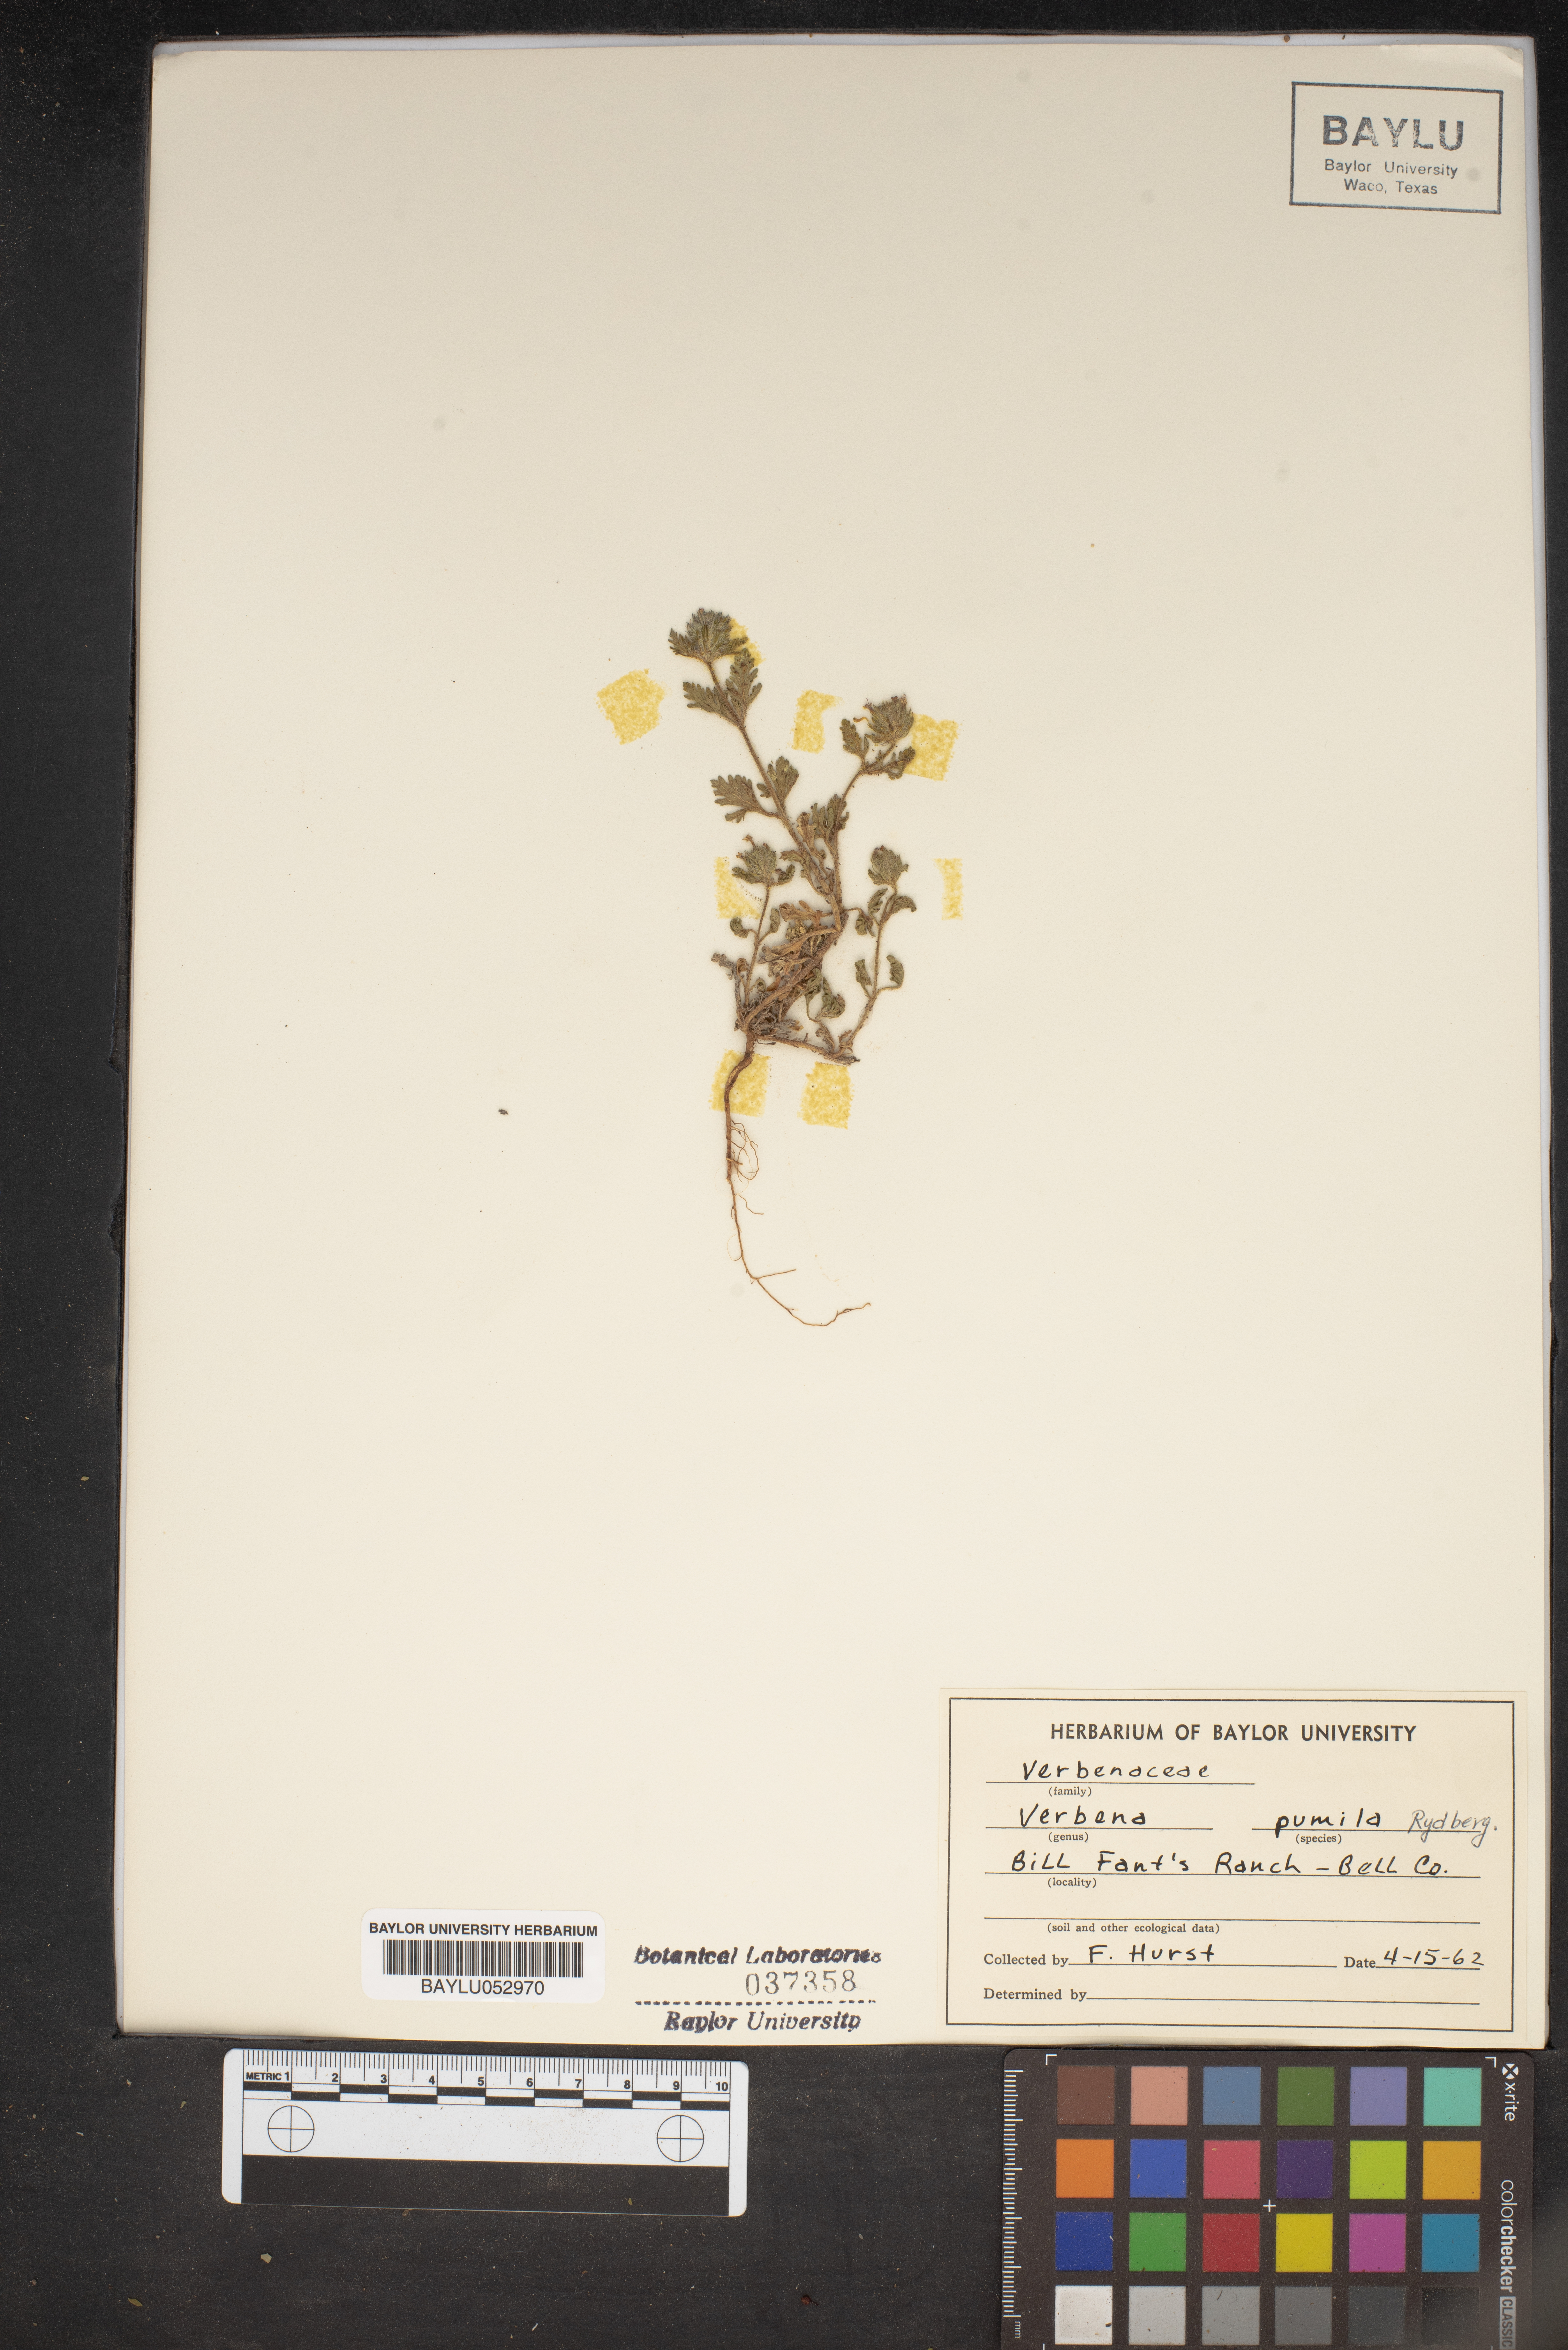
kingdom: Plantae
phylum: Tracheophyta
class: Magnoliopsida
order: Lamiales
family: Verbenaceae
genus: Verbena
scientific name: Verbena pumila
